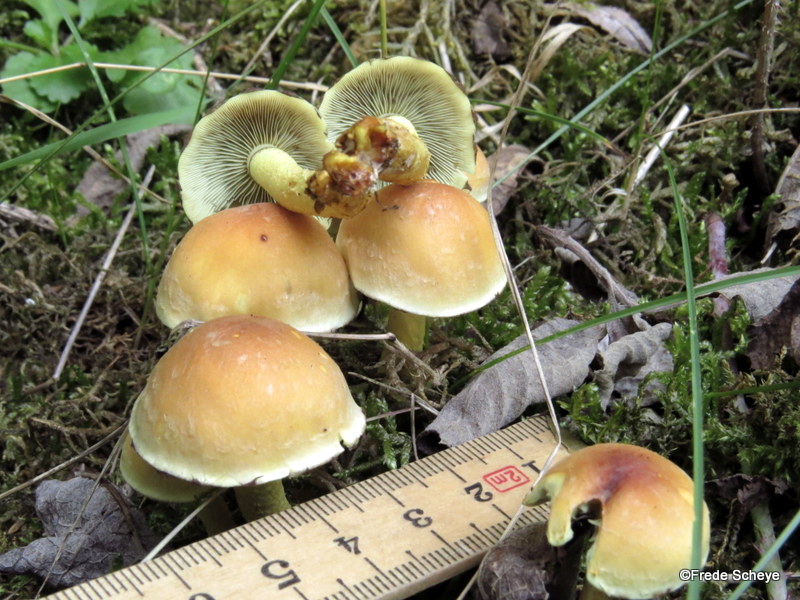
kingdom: Fungi
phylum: Basidiomycota
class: Agaricomycetes
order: Agaricales
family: Strophariaceae
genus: Hypholoma
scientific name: Hypholoma fasciculare
